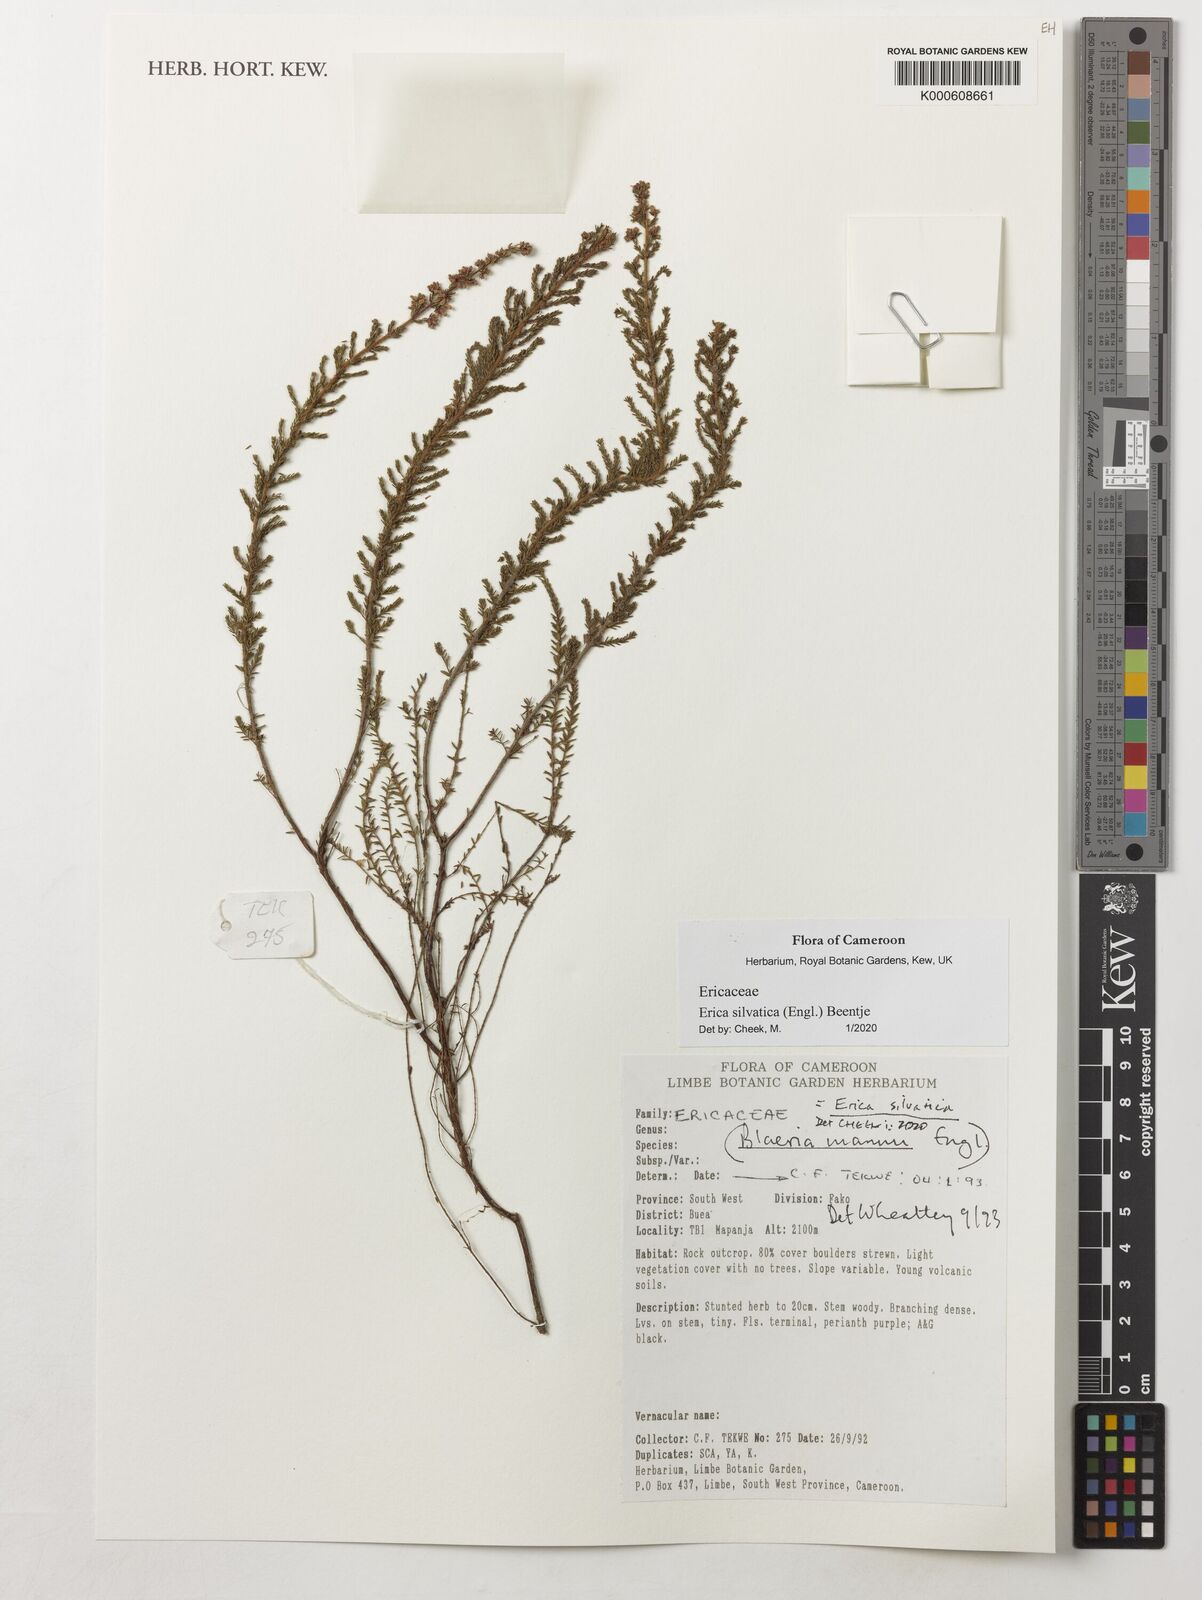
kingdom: Plantae
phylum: Tracheophyta
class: Magnoliopsida
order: Ericales
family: Ericaceae
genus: Erica
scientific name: Erica silvatica
